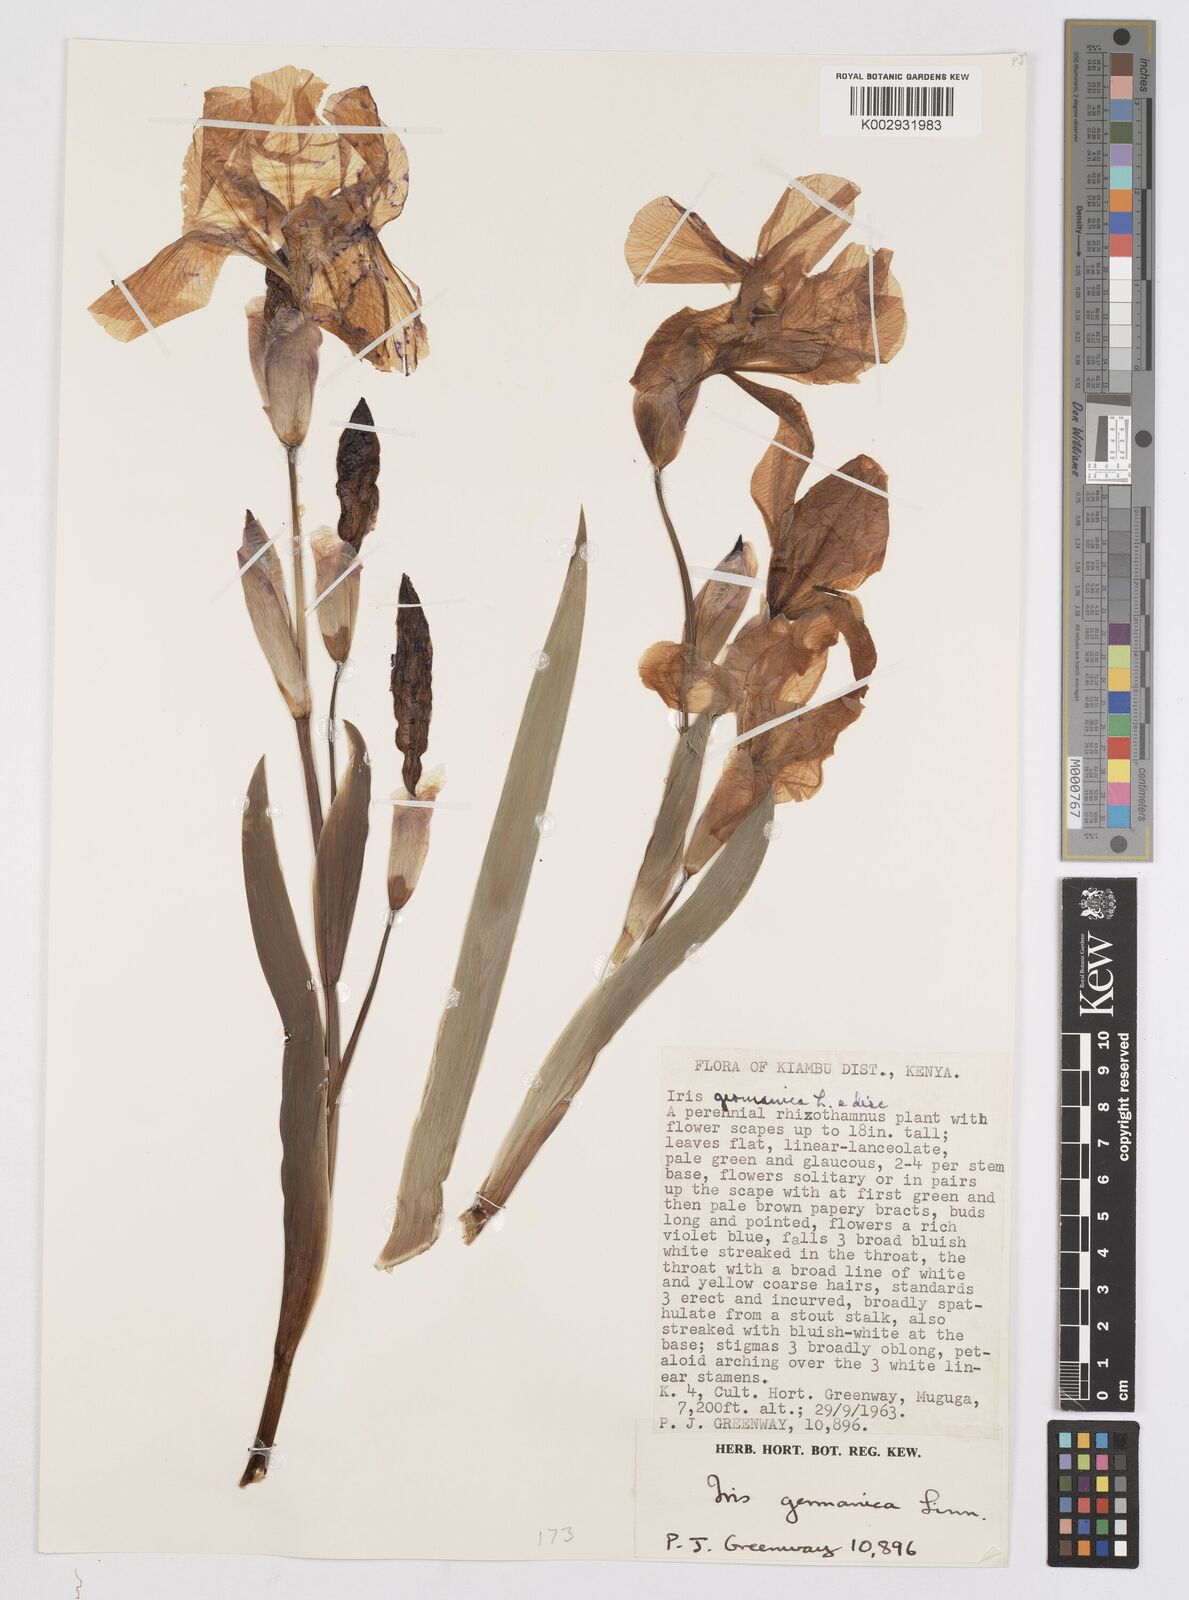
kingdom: Plantae
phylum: Tracheophyta
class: Liliopsida
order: Asparagales
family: Iridaceae
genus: Iris
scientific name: Iris
